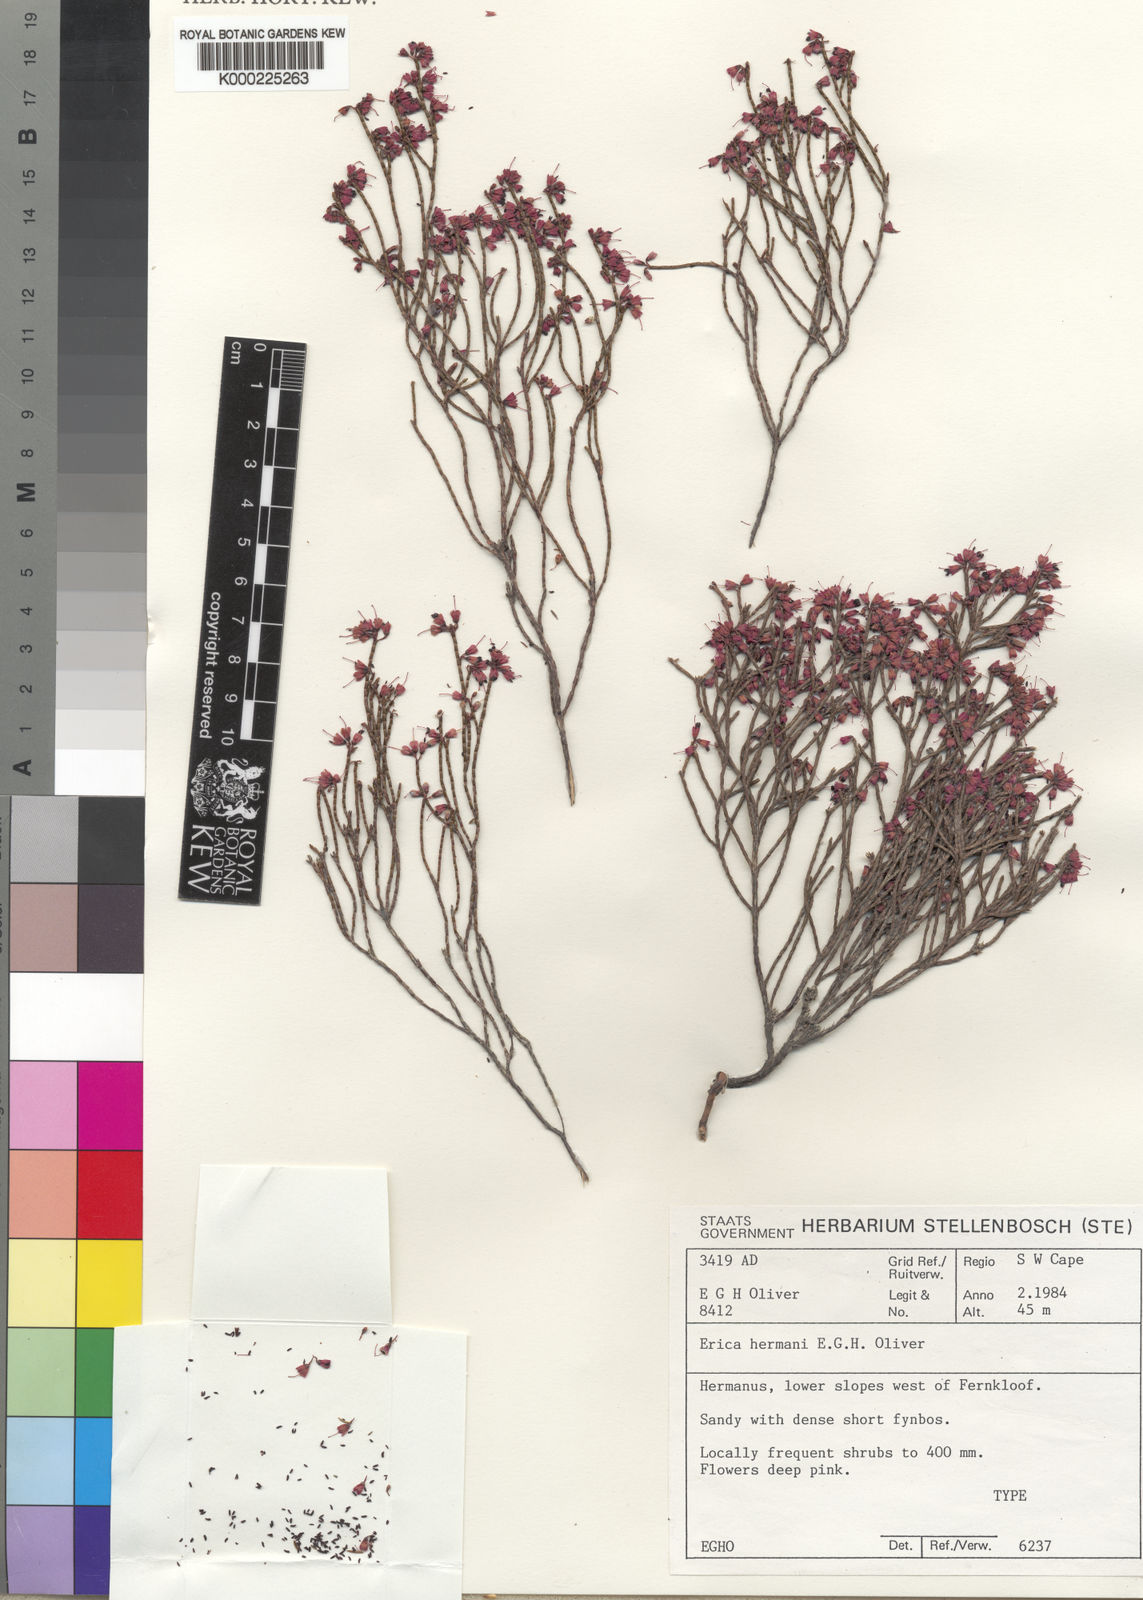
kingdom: Plantae
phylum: Tracheophyta
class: Magnoliopsida
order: Ericales
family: Ericaceae
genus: Erica
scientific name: Erica hermani
